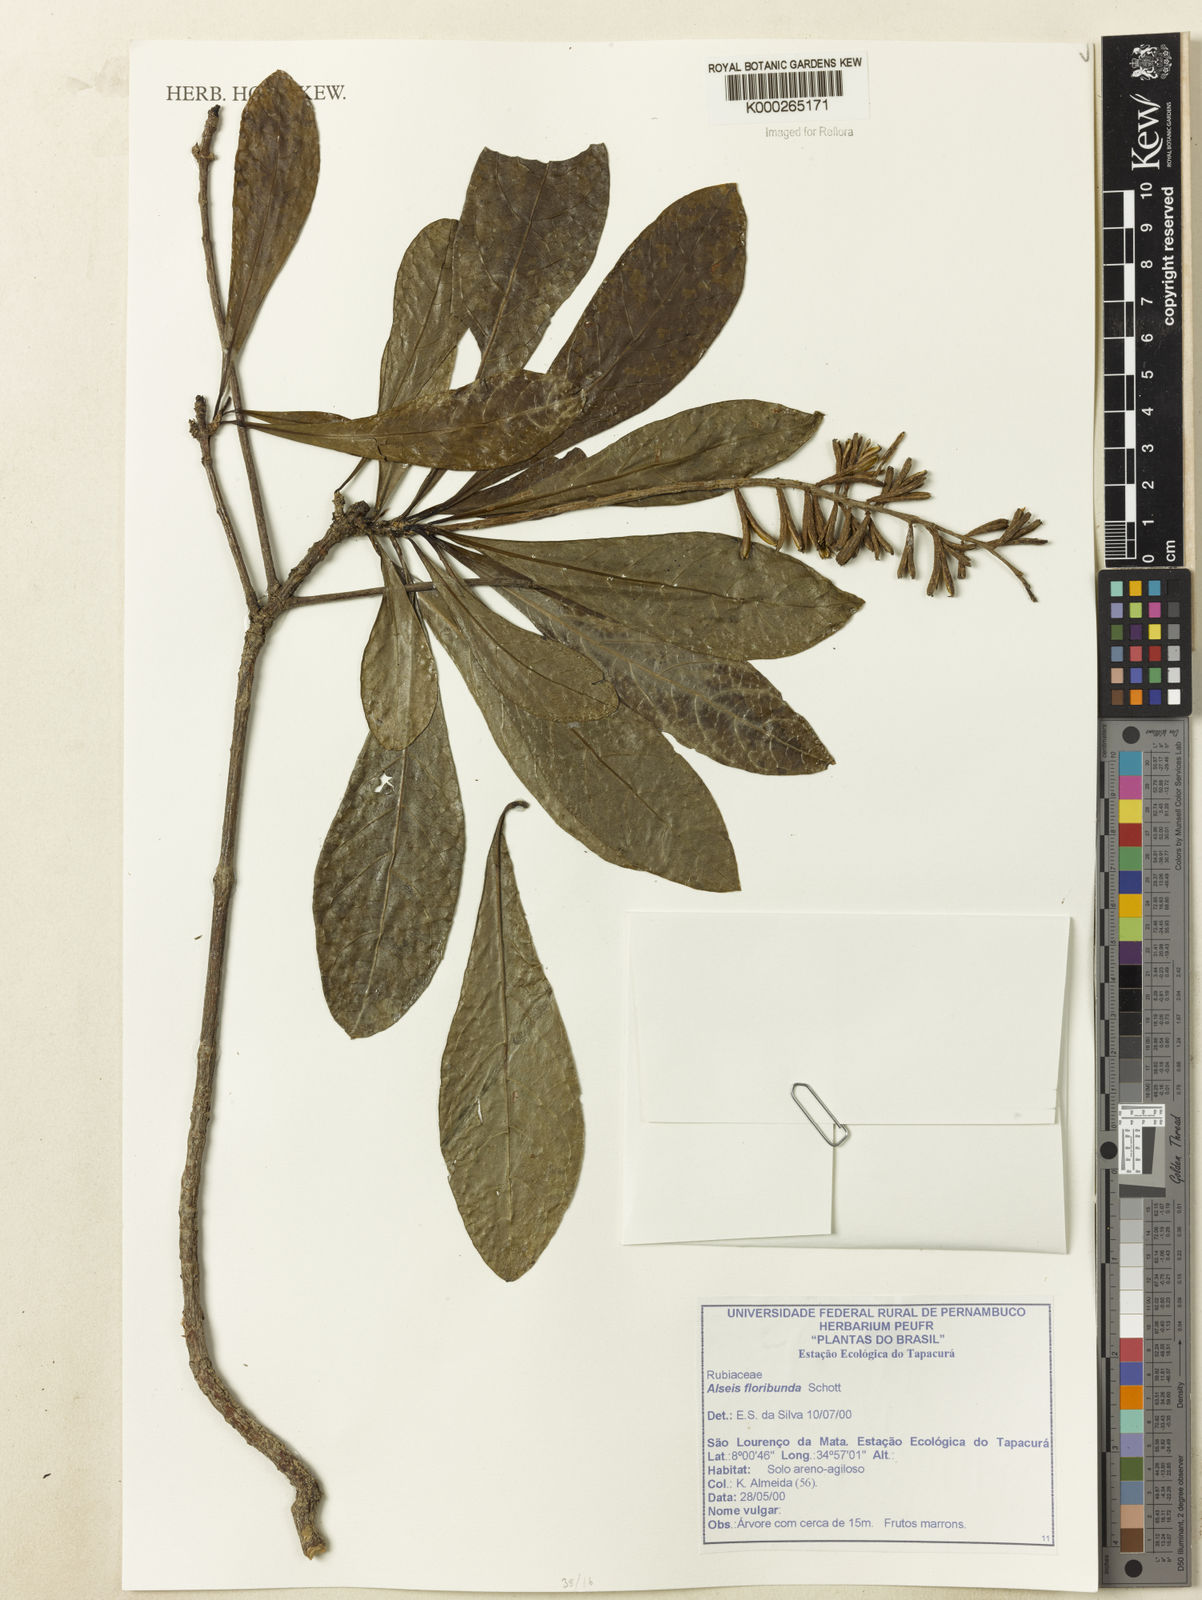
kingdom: Plantae
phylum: Tracheophyta
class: Magnoliopsida
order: Gentianales
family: Rubiaceae
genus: Alseis
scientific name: Alseis floribunda
